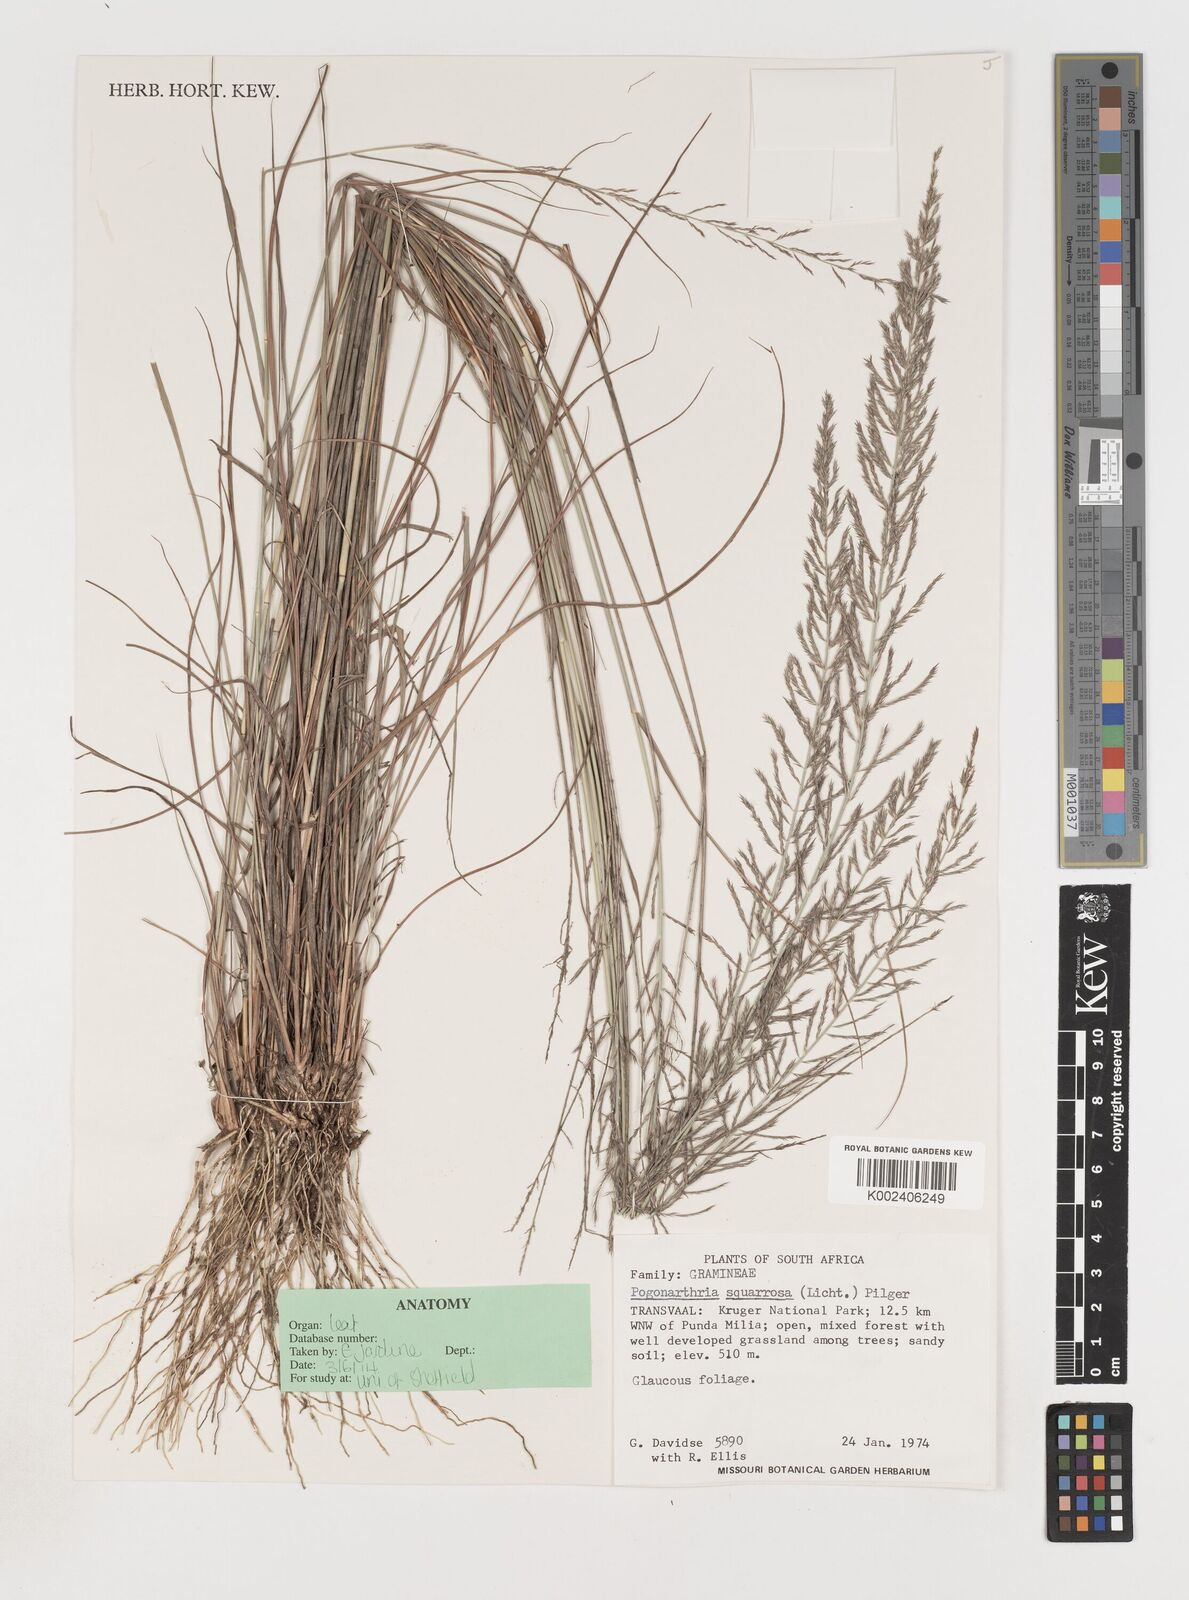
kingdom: Plantae
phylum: Tracheophyta
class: Liliopsida
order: Poales
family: Poaceae
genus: Pogonarthria
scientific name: Pogonarthria squarrosa
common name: Grass
